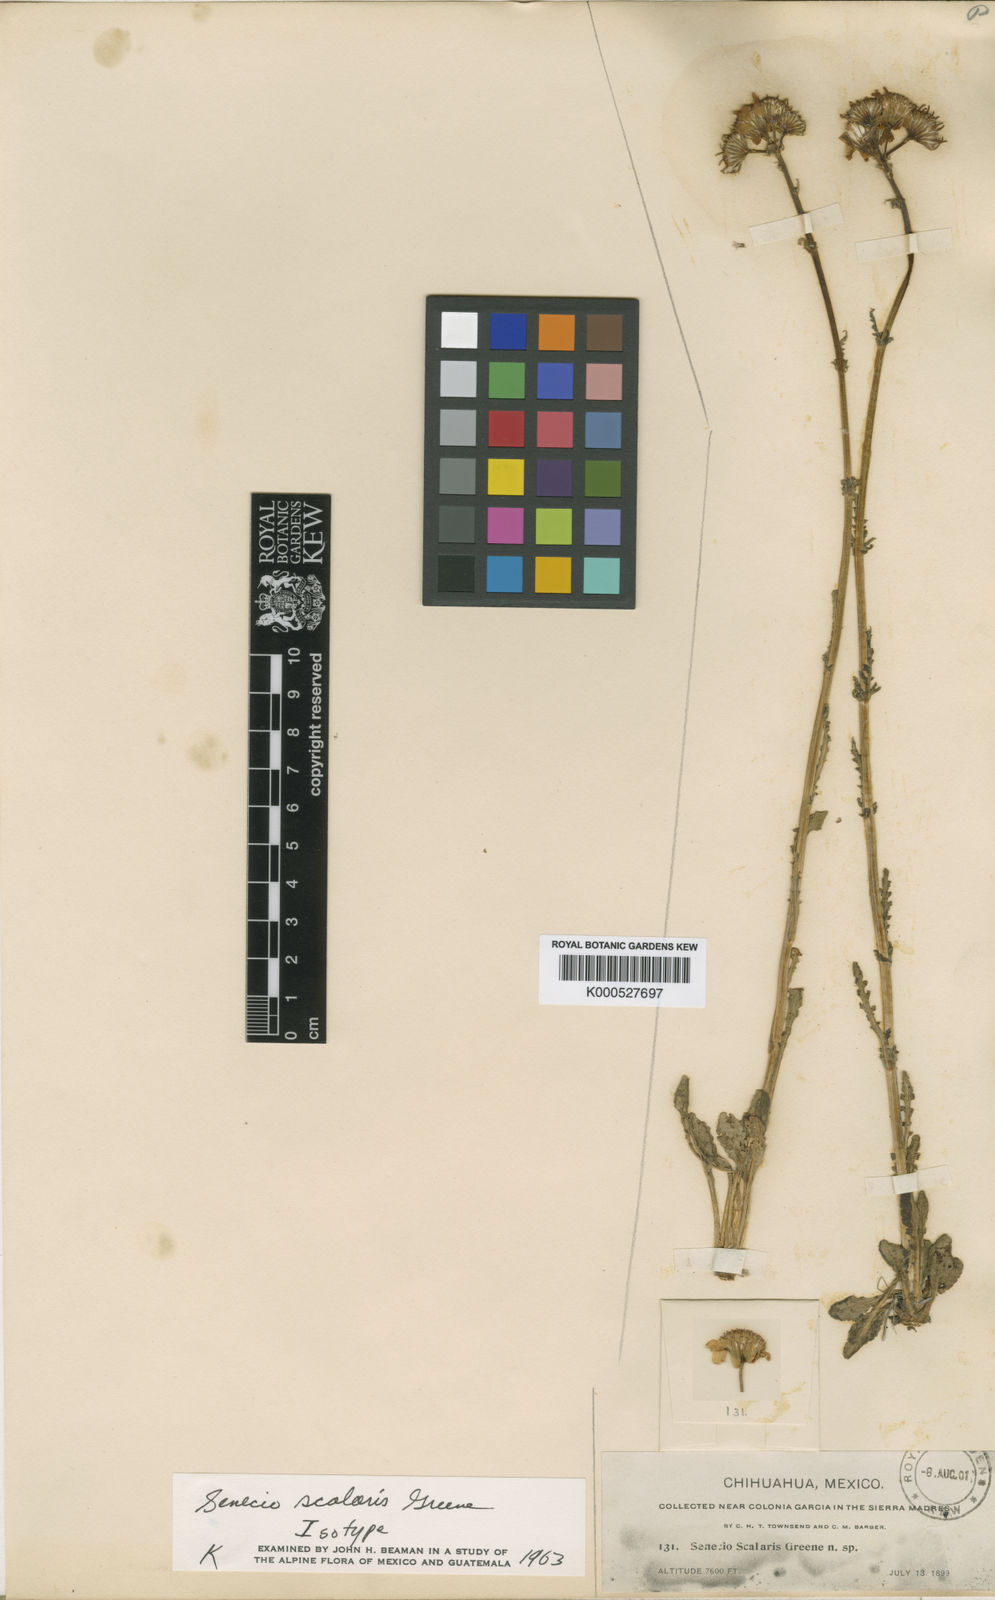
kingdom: Plantae
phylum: Tracheophyta
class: Magnoliopsida
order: Asterales
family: Asteraceae
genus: Packera
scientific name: Packera scalaris
